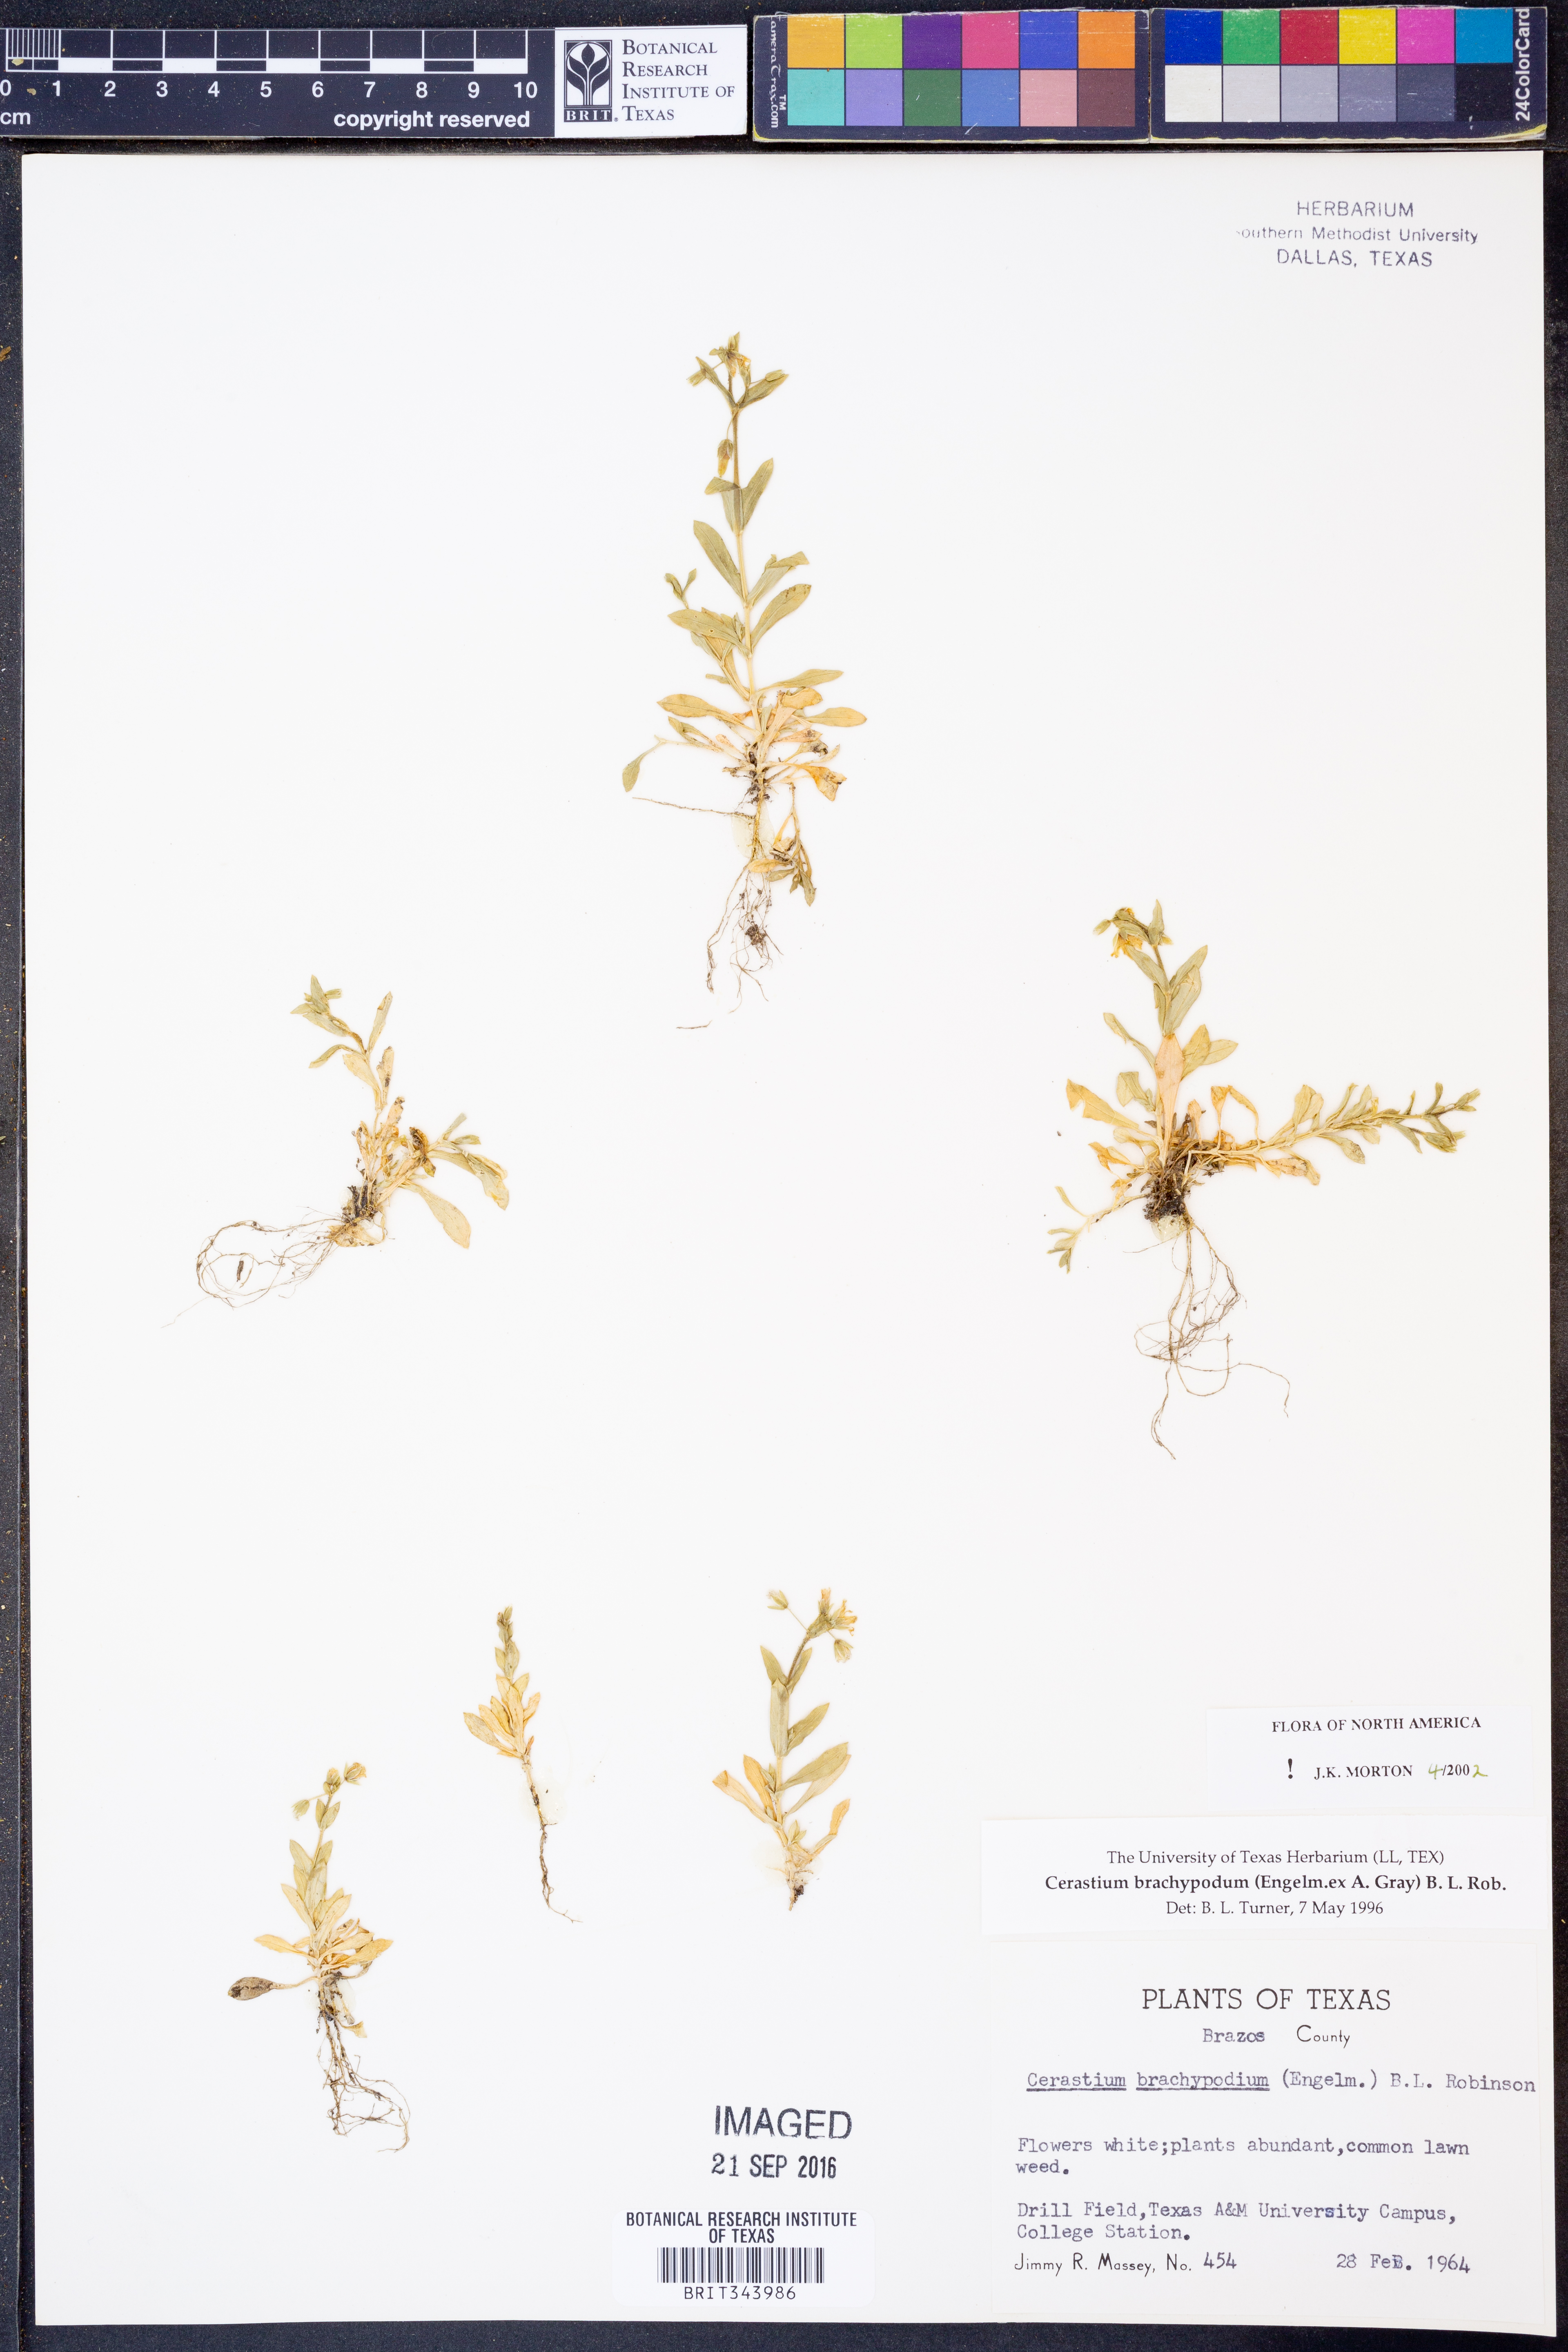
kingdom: Plantae
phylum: Tracheophyta
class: Magnoliopsida
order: Caryophyllales
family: Caryophyllaceae
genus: Cerastium
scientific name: Cerastium brachypodum
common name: Short-pedicelled nodding chickweed
